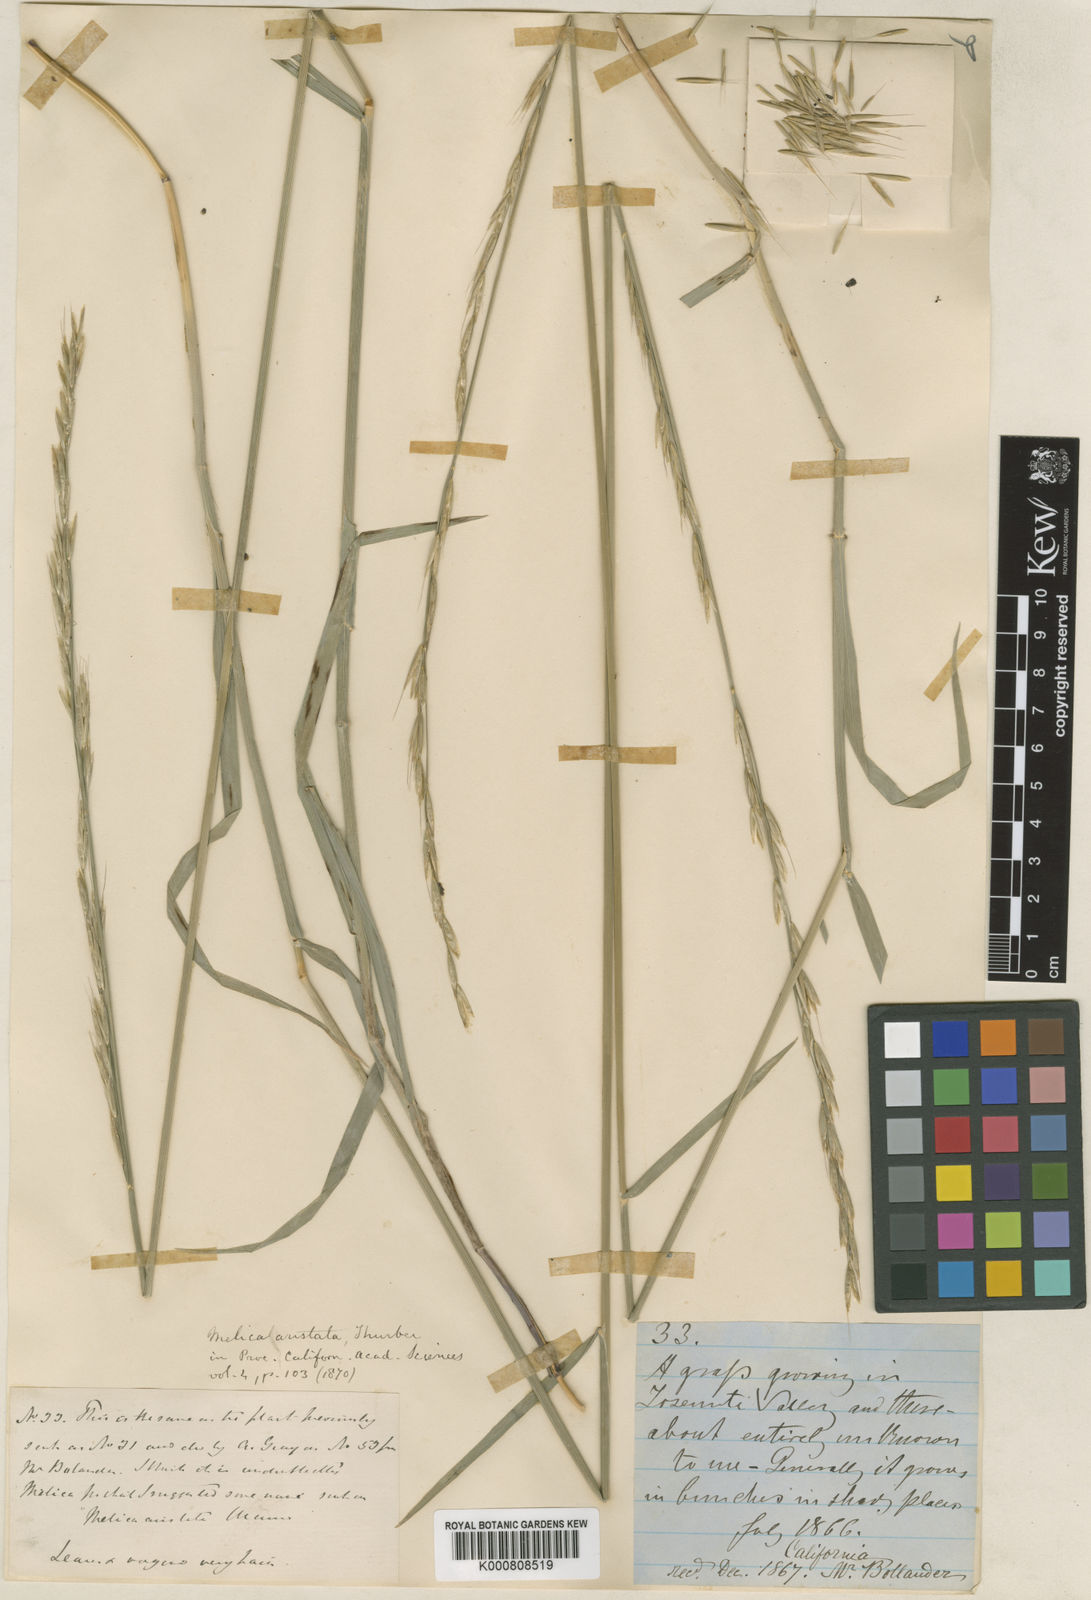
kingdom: Plantae
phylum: Tracheophyta
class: Liliopsida
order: Poales
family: Poaceae
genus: Melica
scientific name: Melica aristata
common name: Awned melic
